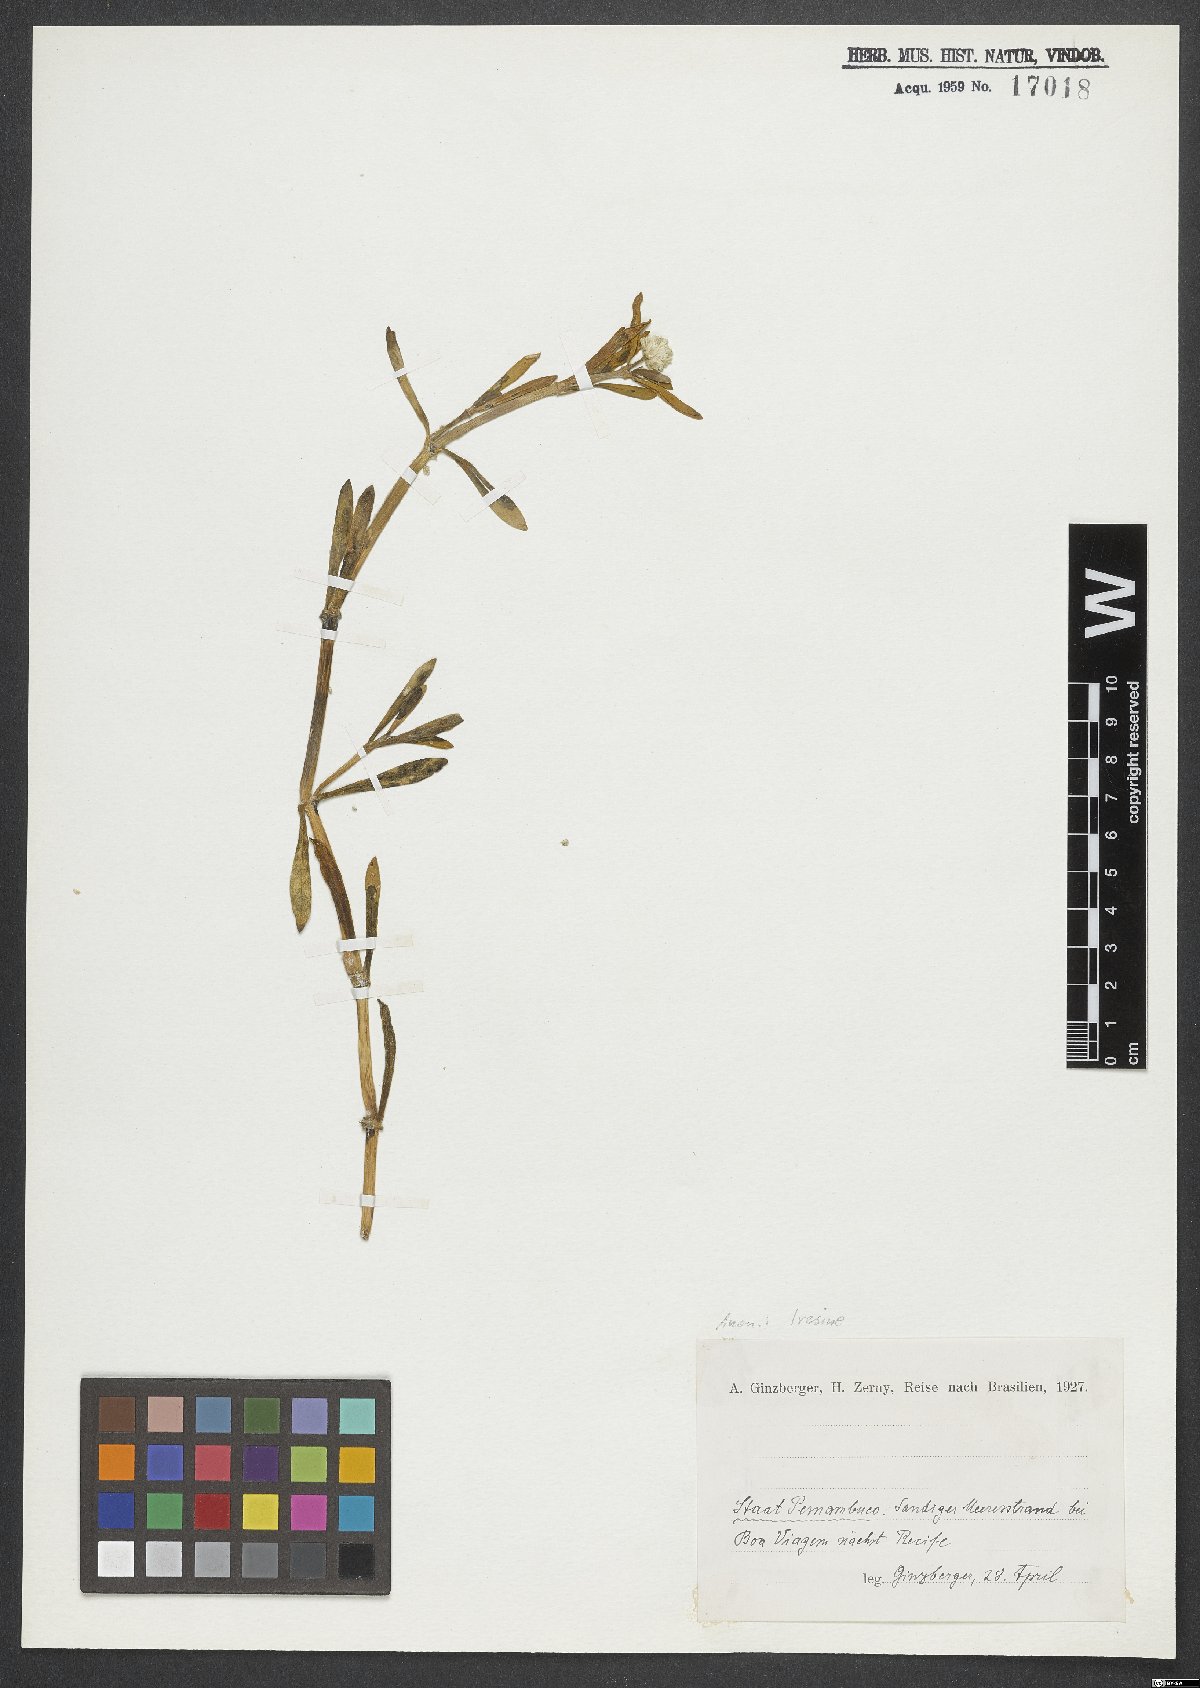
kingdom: Plantae
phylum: Tracheophyta
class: Magnoliopsida
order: Caryophyllales
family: Amaranthaceae
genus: Iresine
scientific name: Iresine
